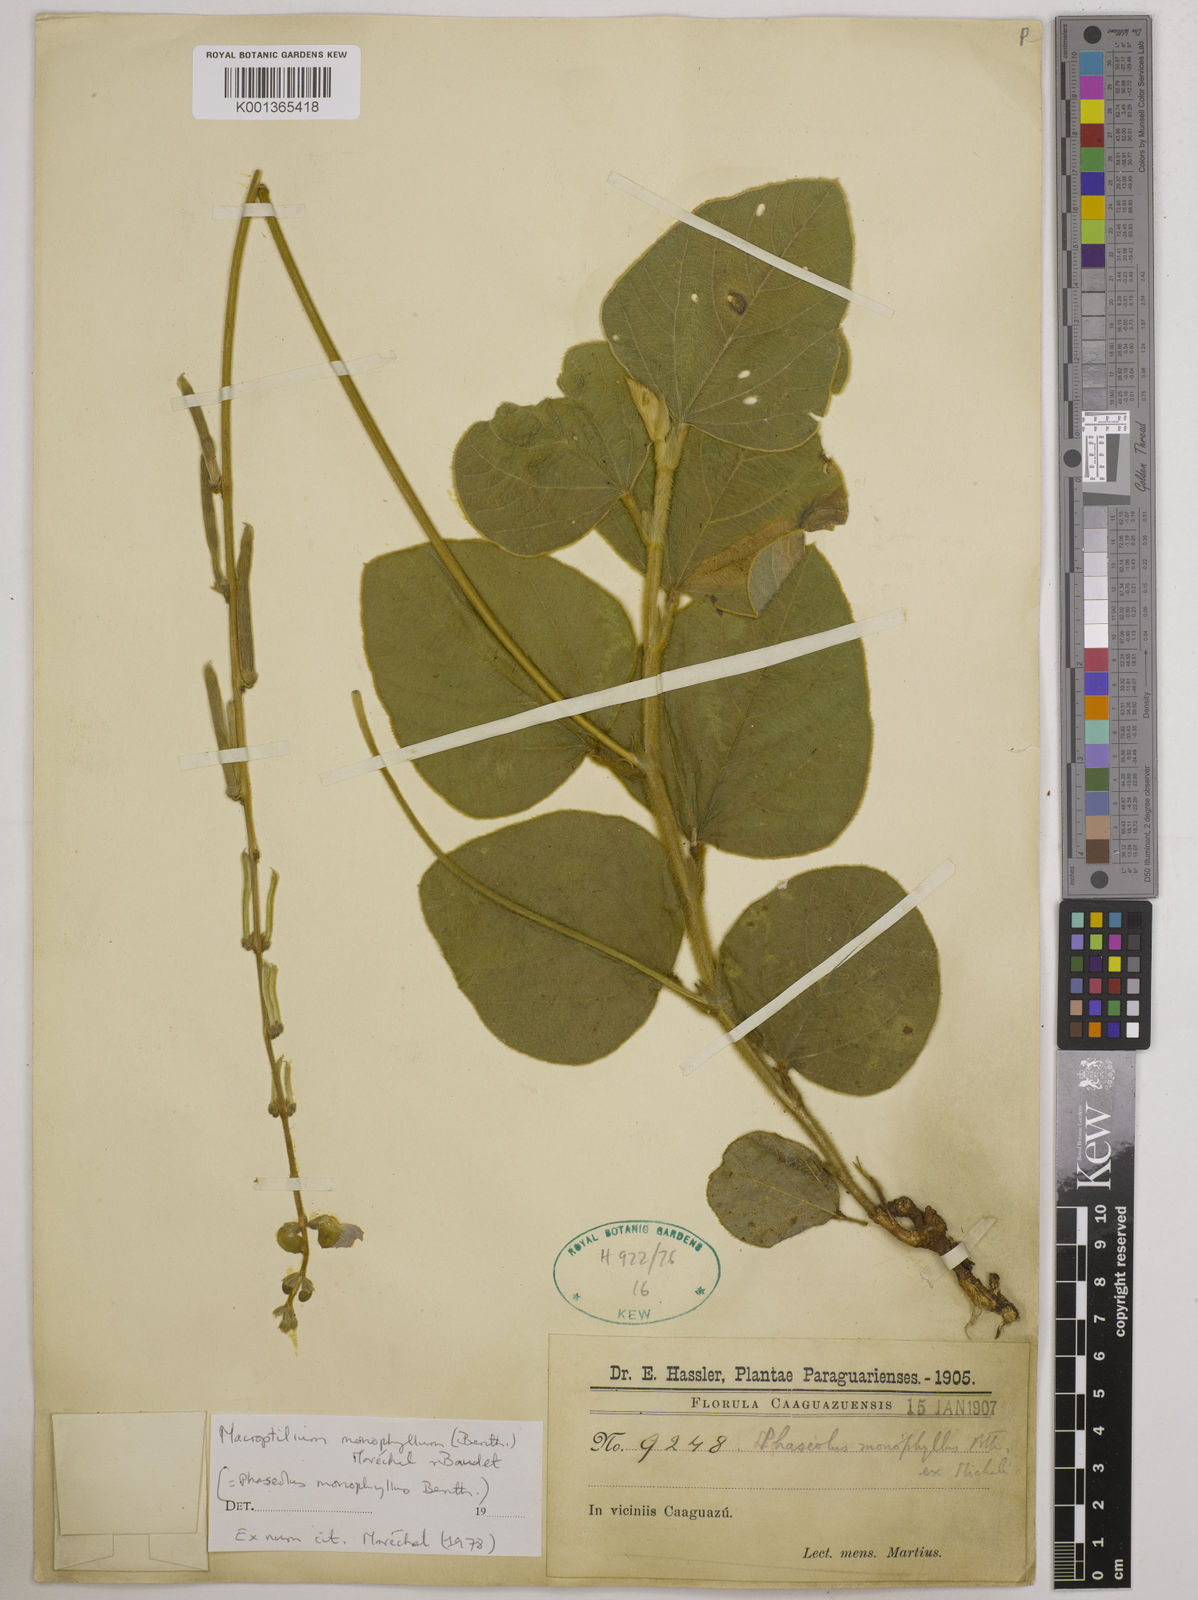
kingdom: Plantae
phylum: Tracheophyta
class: Magnoliopsida
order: Fabales
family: Fabaceae
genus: Macroptilium
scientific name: Macroptilium monophyllum
